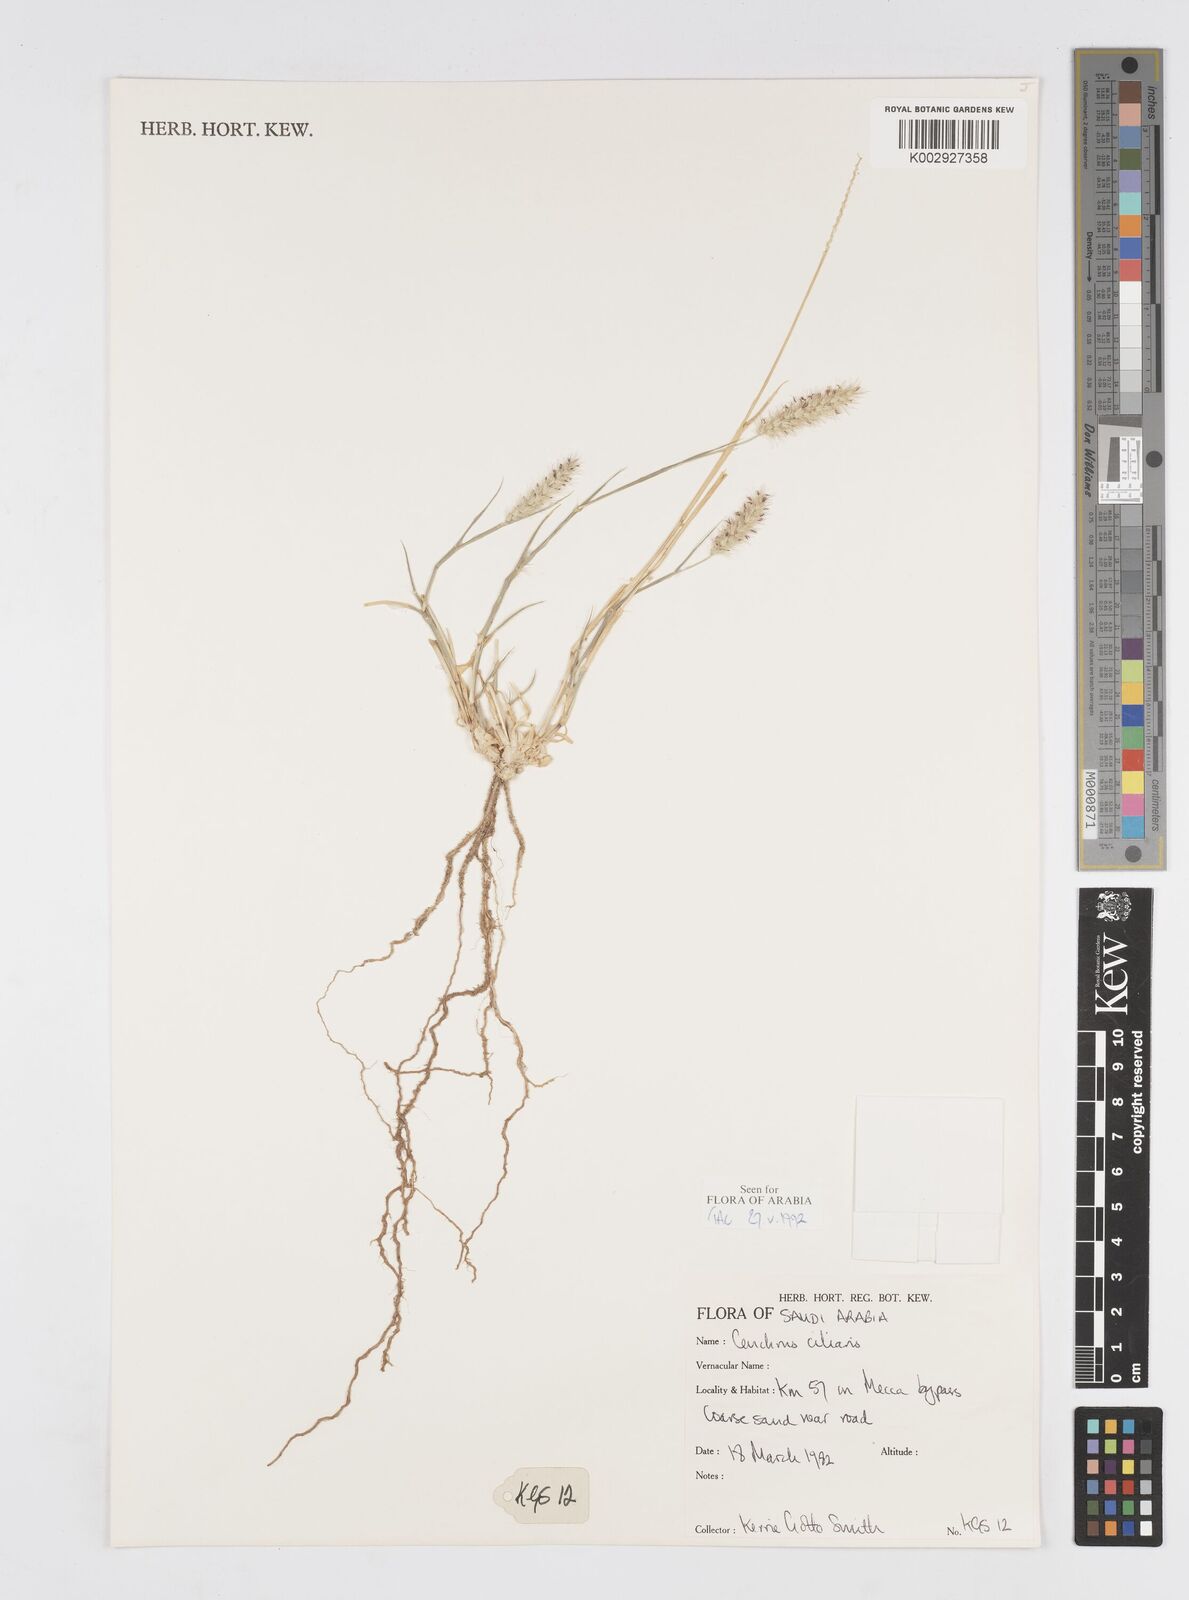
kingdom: Plantae
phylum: Tracheophyta
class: Liliopsida
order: Poales
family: Poaceae
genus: Cenchrus
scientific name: Cenchrus ciliaris
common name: Buffelgrass
